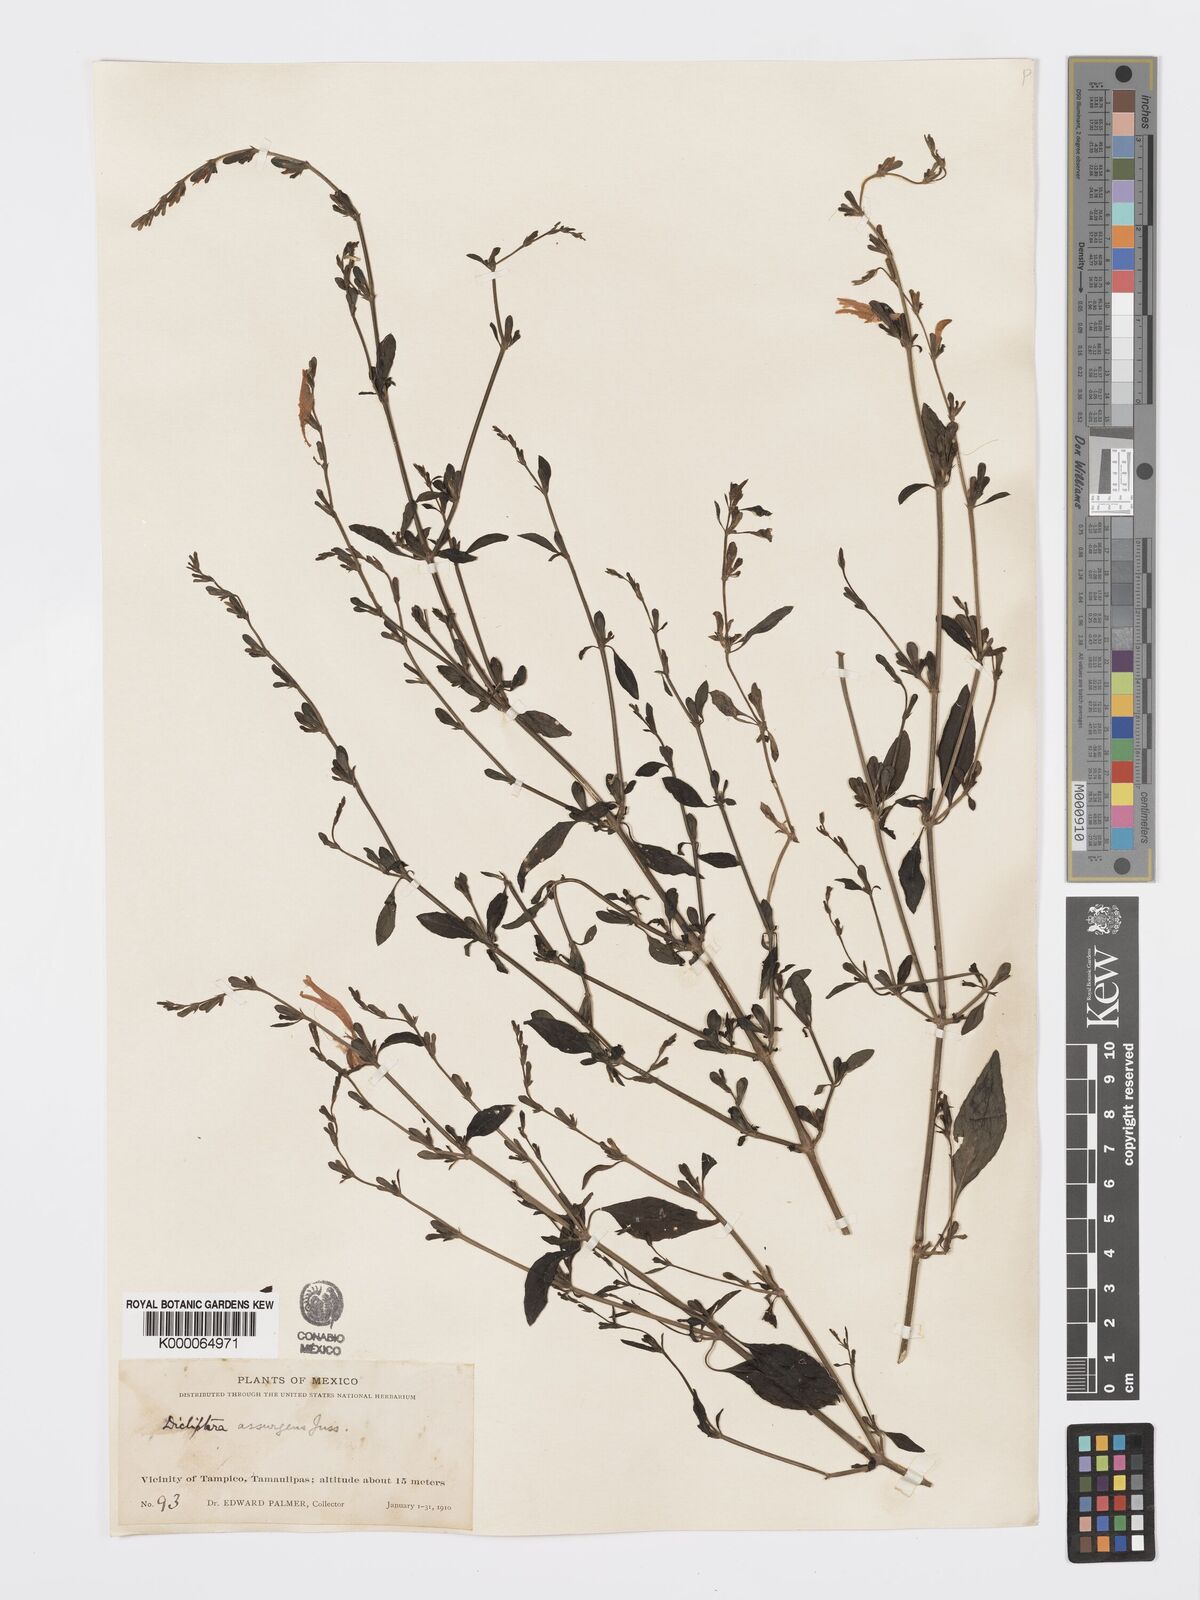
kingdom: Plantae
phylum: Tracheophyta
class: Magnoliopsida
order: Lamiales
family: Acanthaceae
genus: Dicliptera
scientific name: Dicliptera sexangularis
